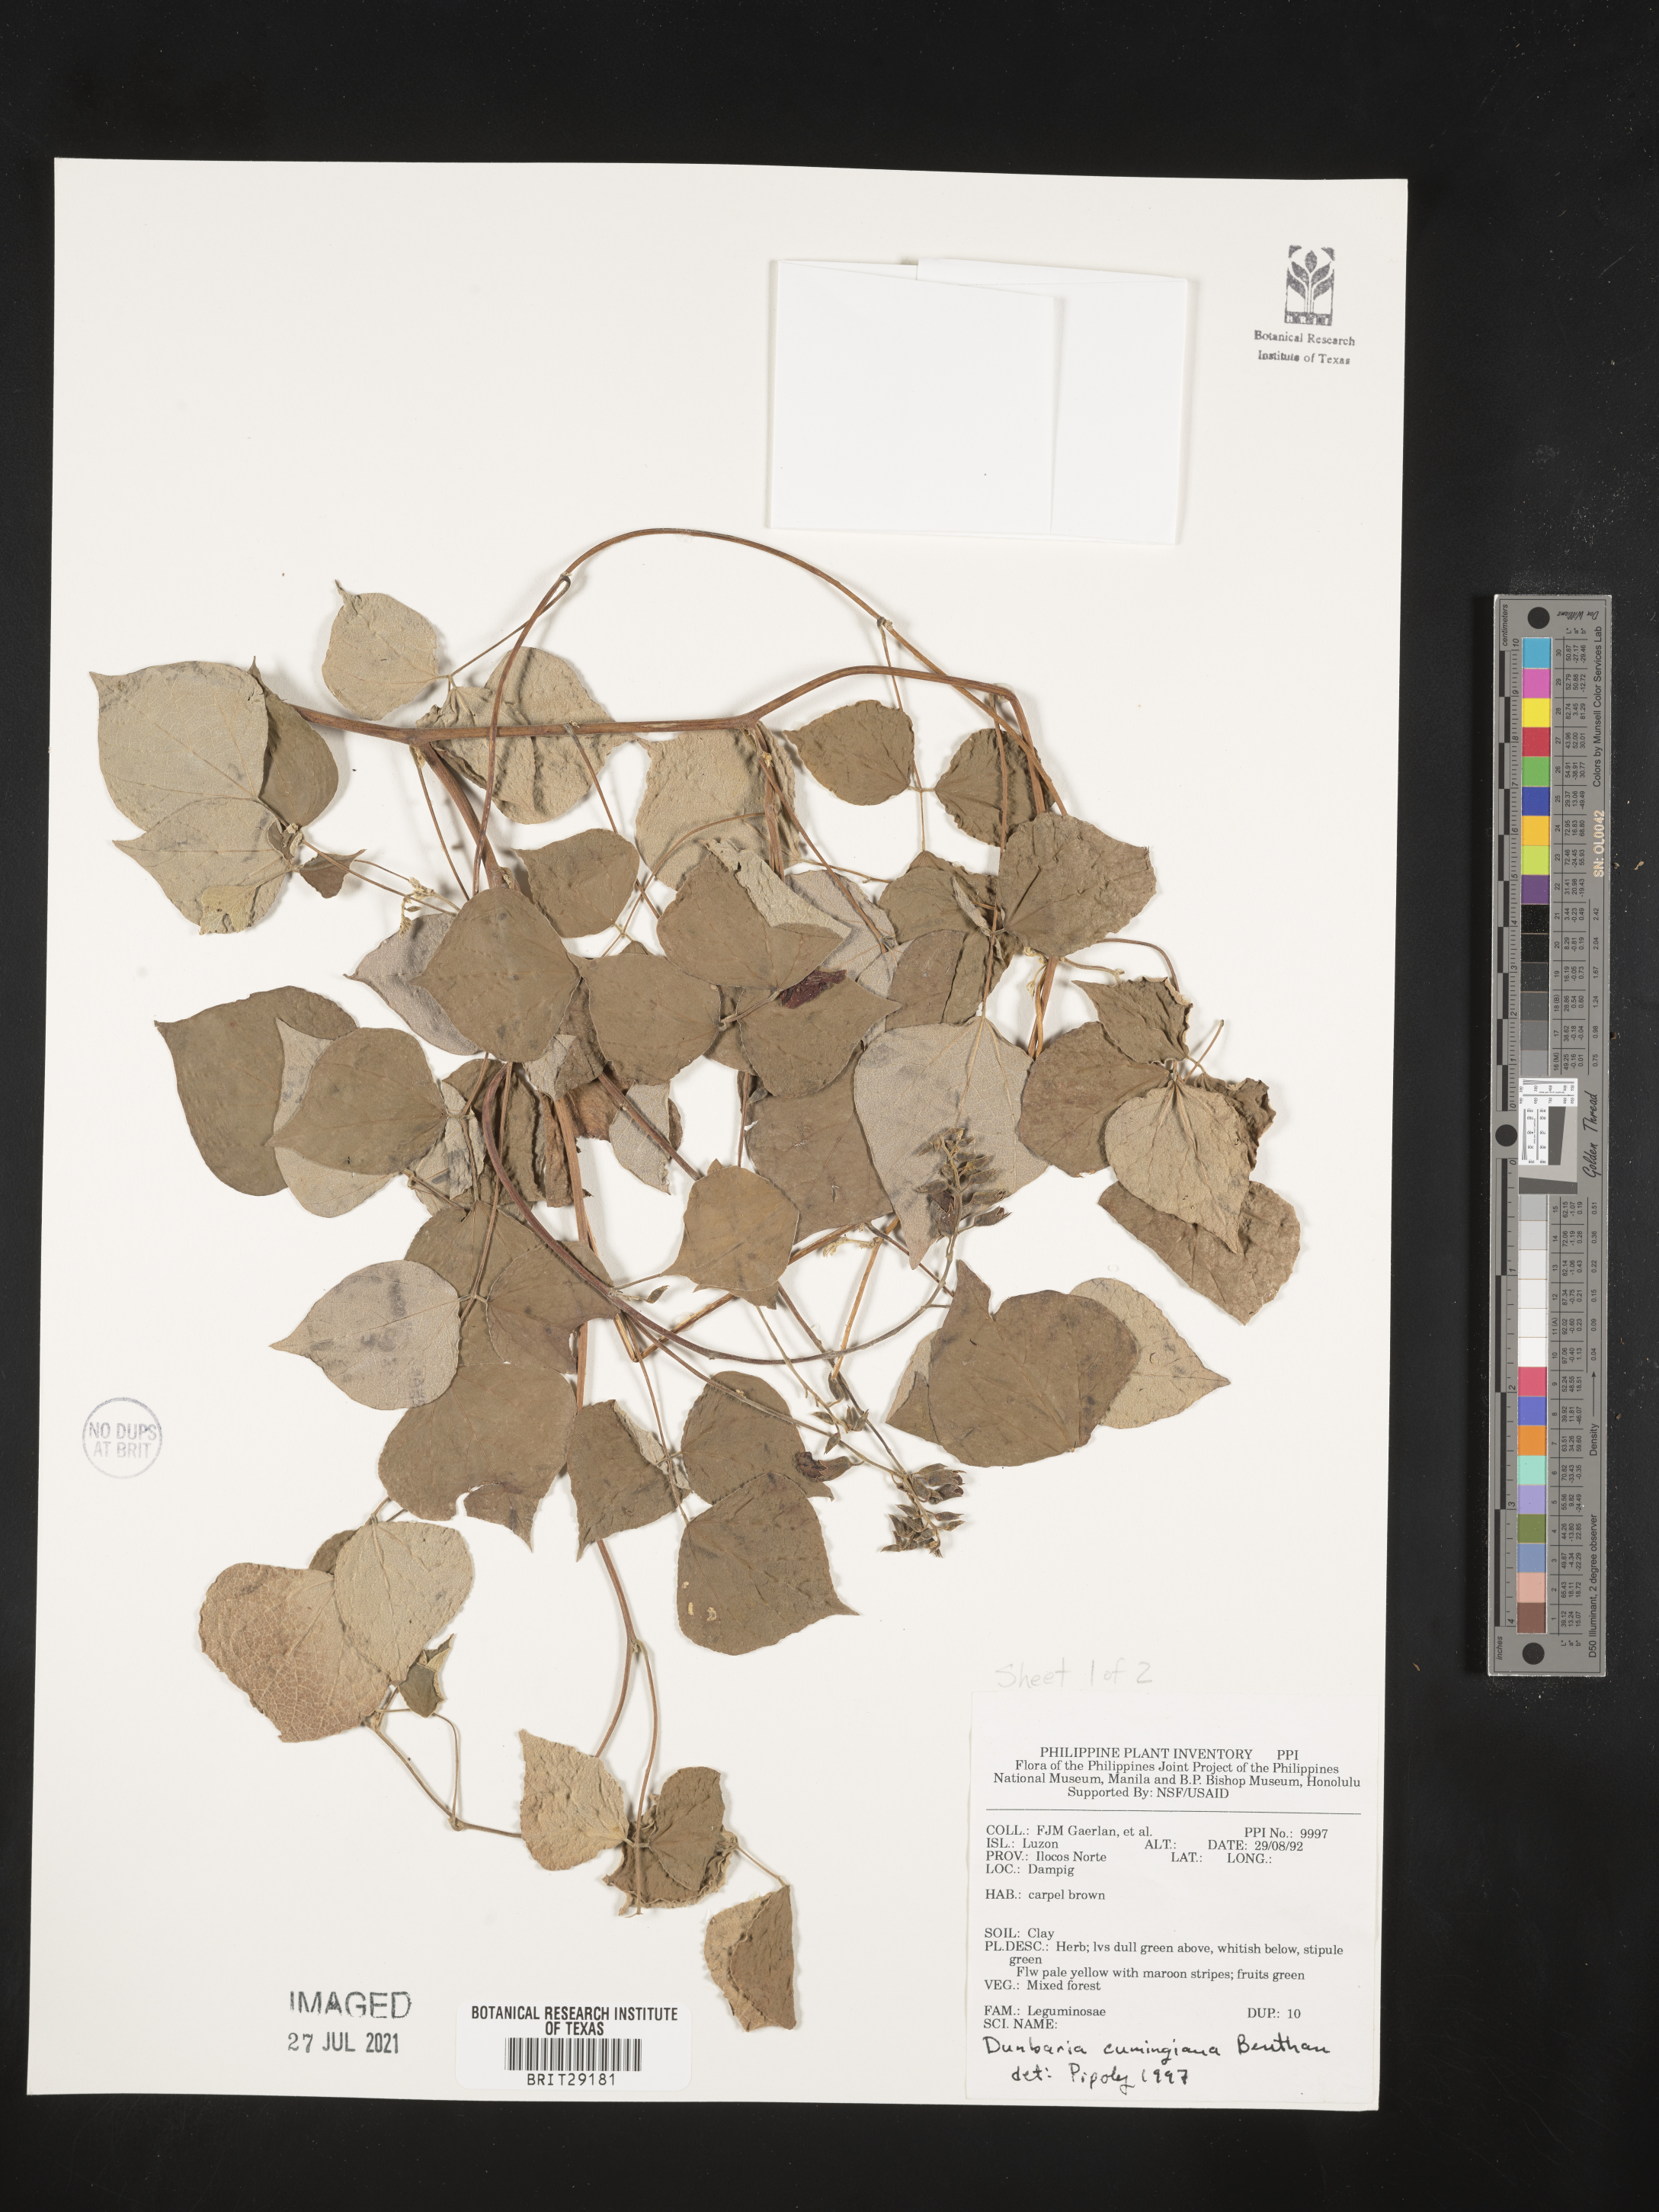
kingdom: Plantae
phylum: Tracheophyta
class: Magnoliopsida
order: Fabales
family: Fabaceae
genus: Dunbaria
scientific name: Dunbaria cumingiana
